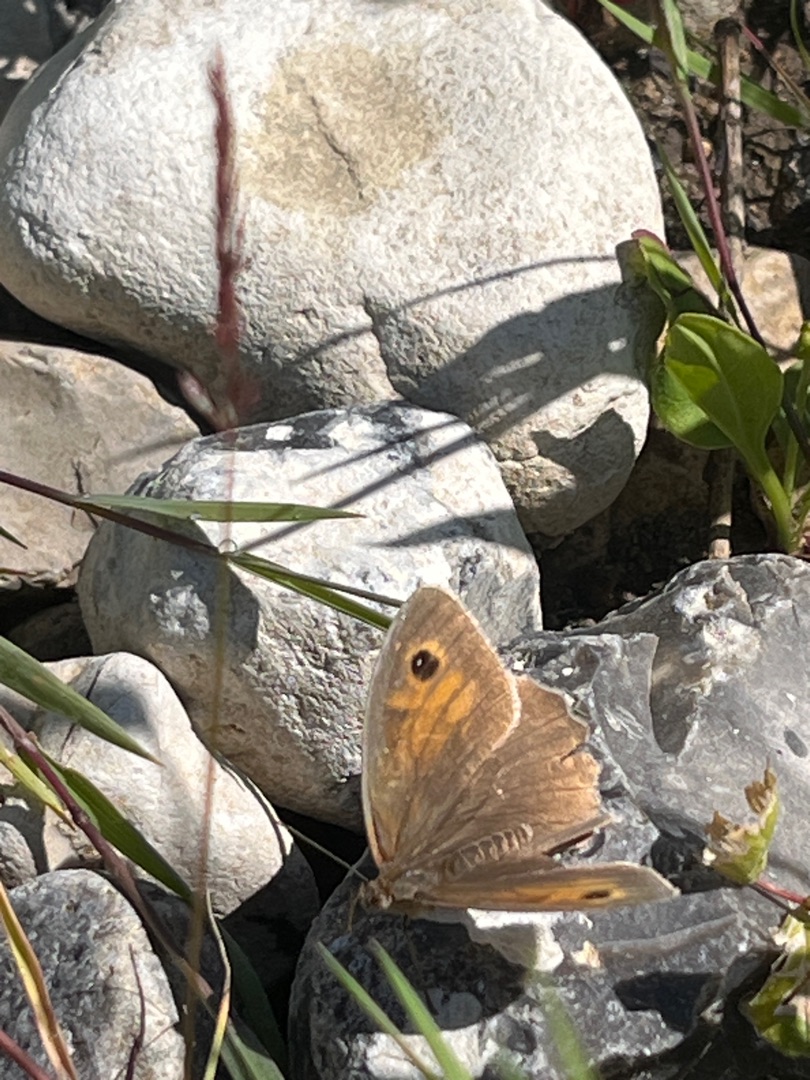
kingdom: Animalia
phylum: Arthropoda
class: Insecta
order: Lepidoptera
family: Nymphalidae
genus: Maniola
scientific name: Maniola jurtina
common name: Græsrandøje
